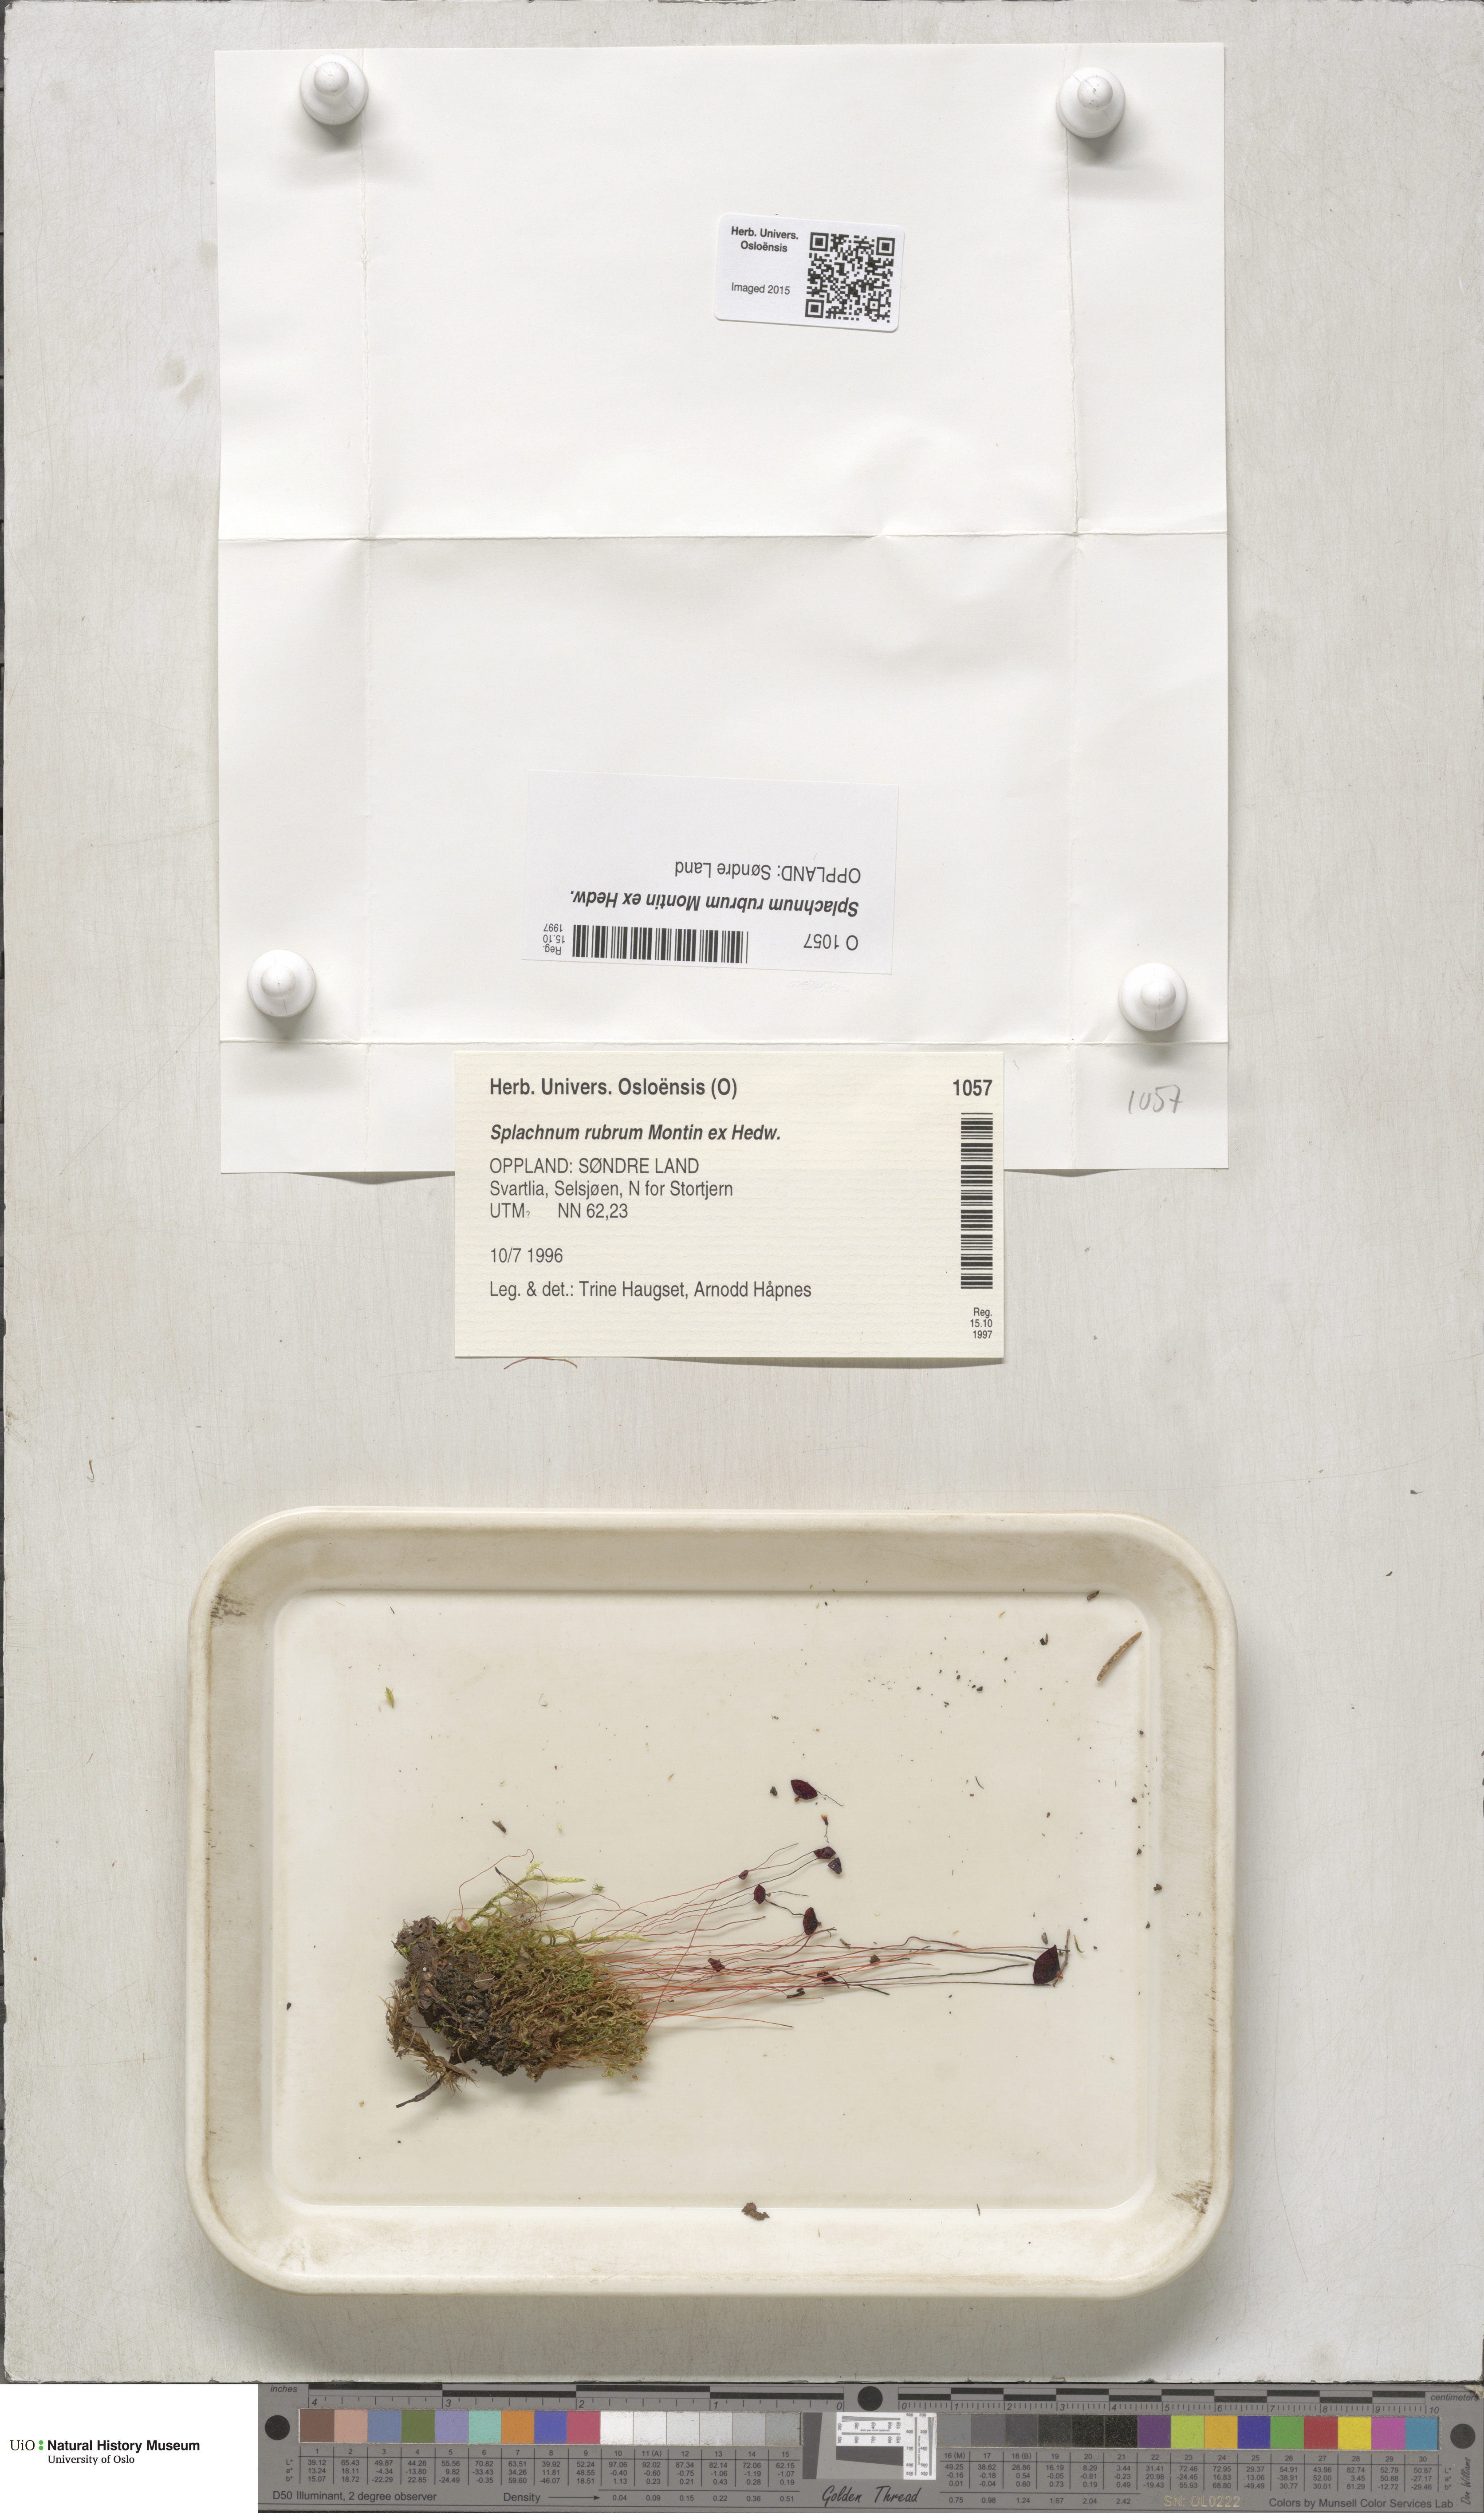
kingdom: Plantae
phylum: Bryophyta
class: Bryopsida
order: Splachnales
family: Splachnaceae
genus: Splachnum
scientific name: Splachnum rubrum
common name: Red dung moss
